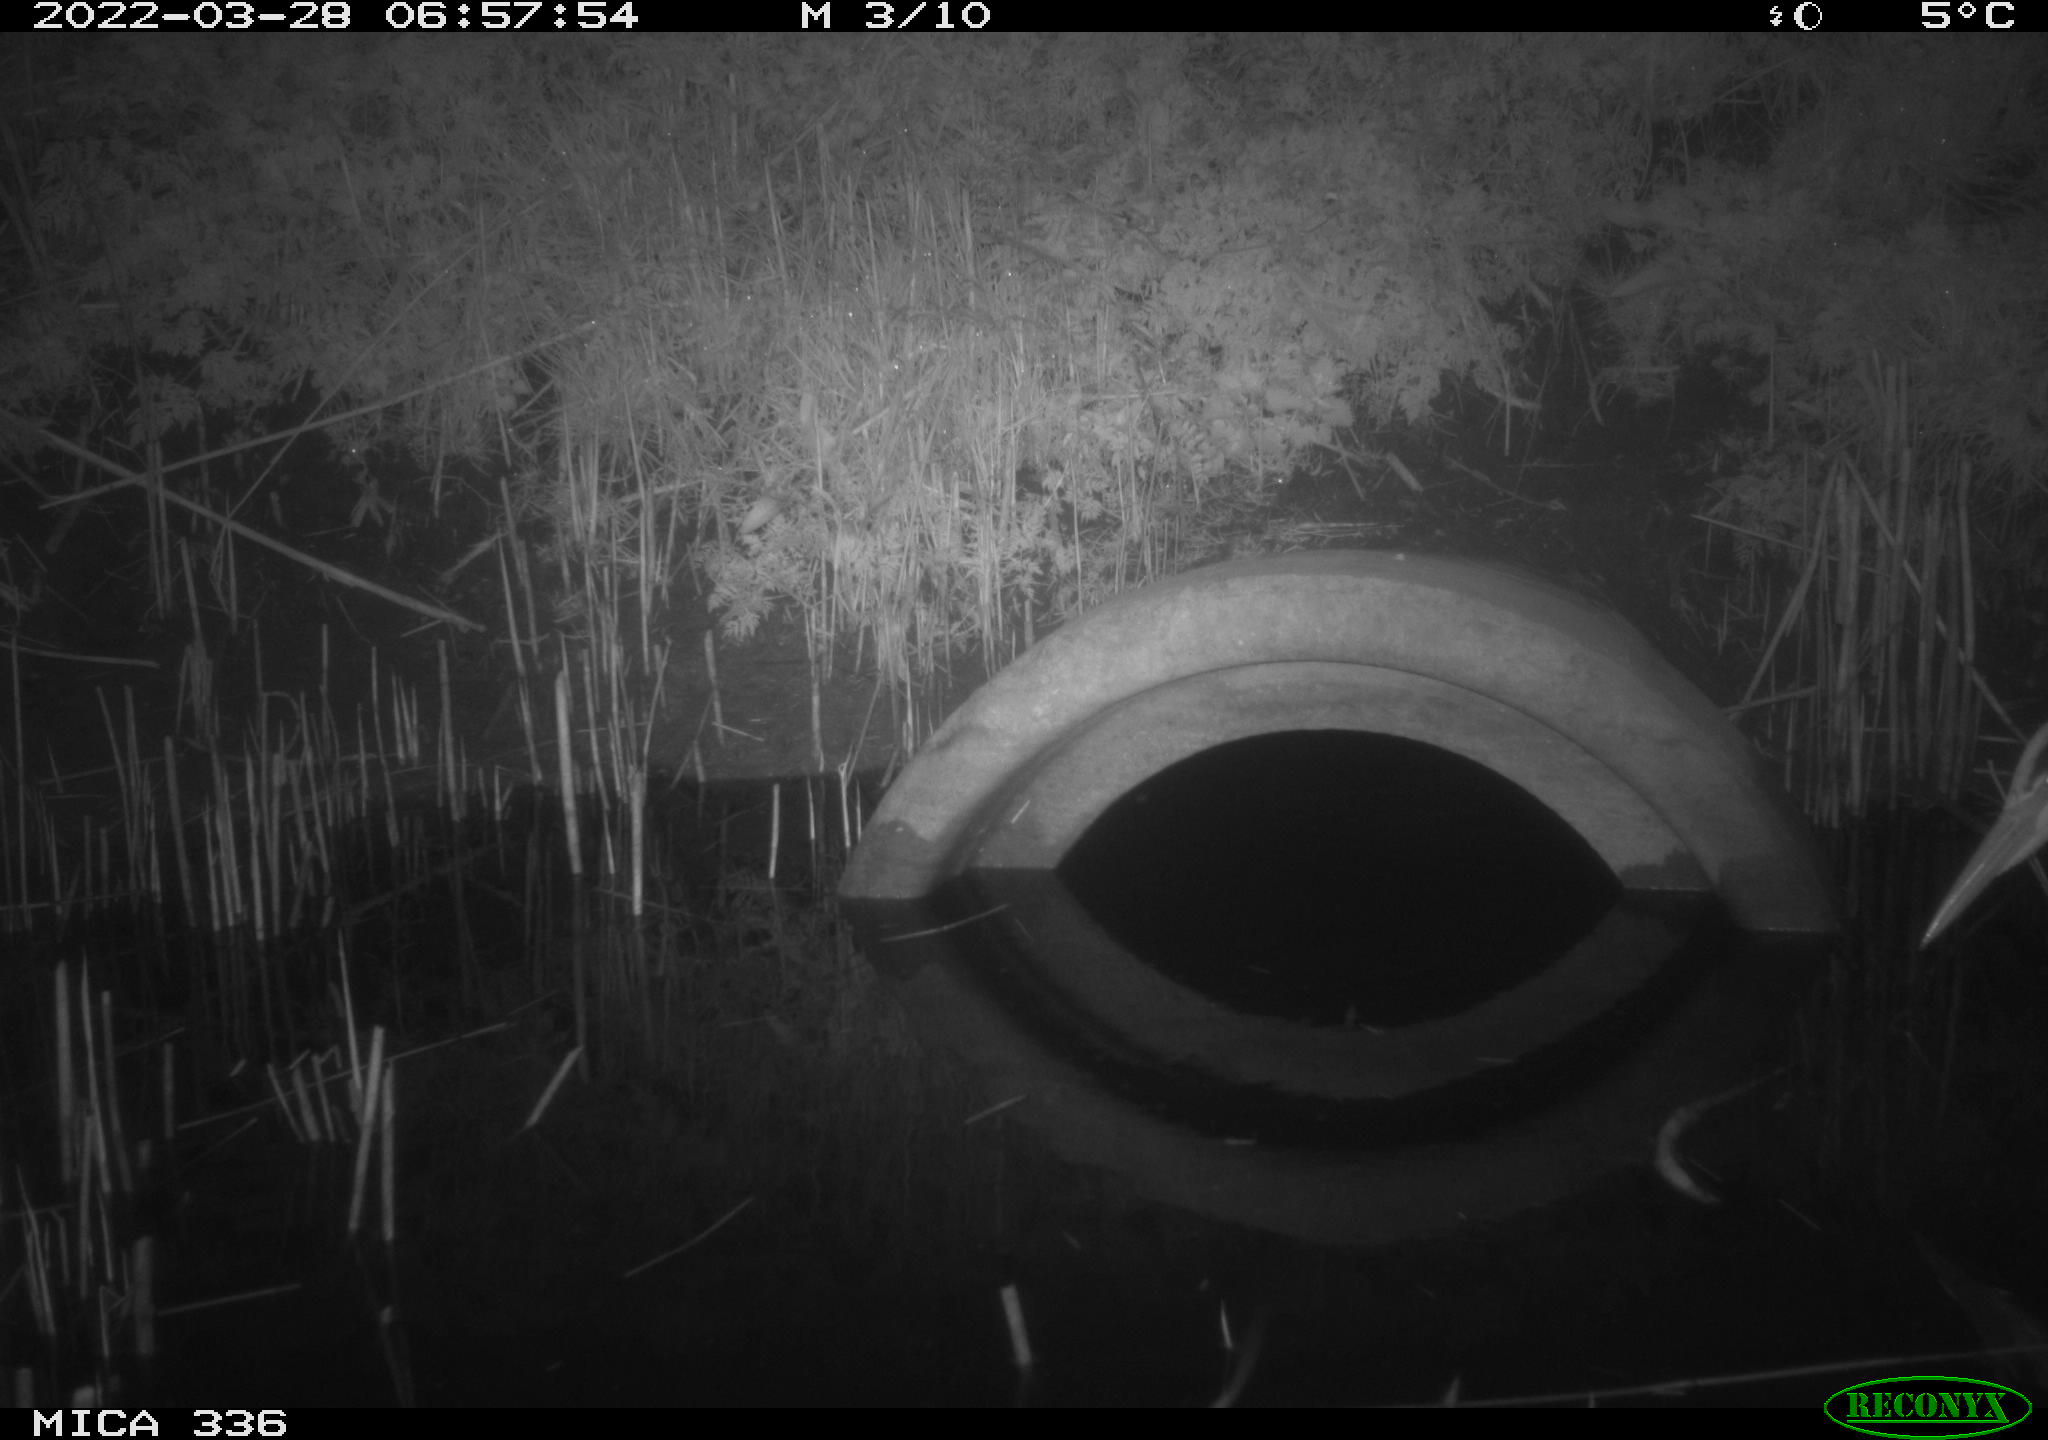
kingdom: Animalia
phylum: Chordata
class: Aves
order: Pelecaniformes
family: Ardeidae
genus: Ardea
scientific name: Ardea cinerea
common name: Grey heron
